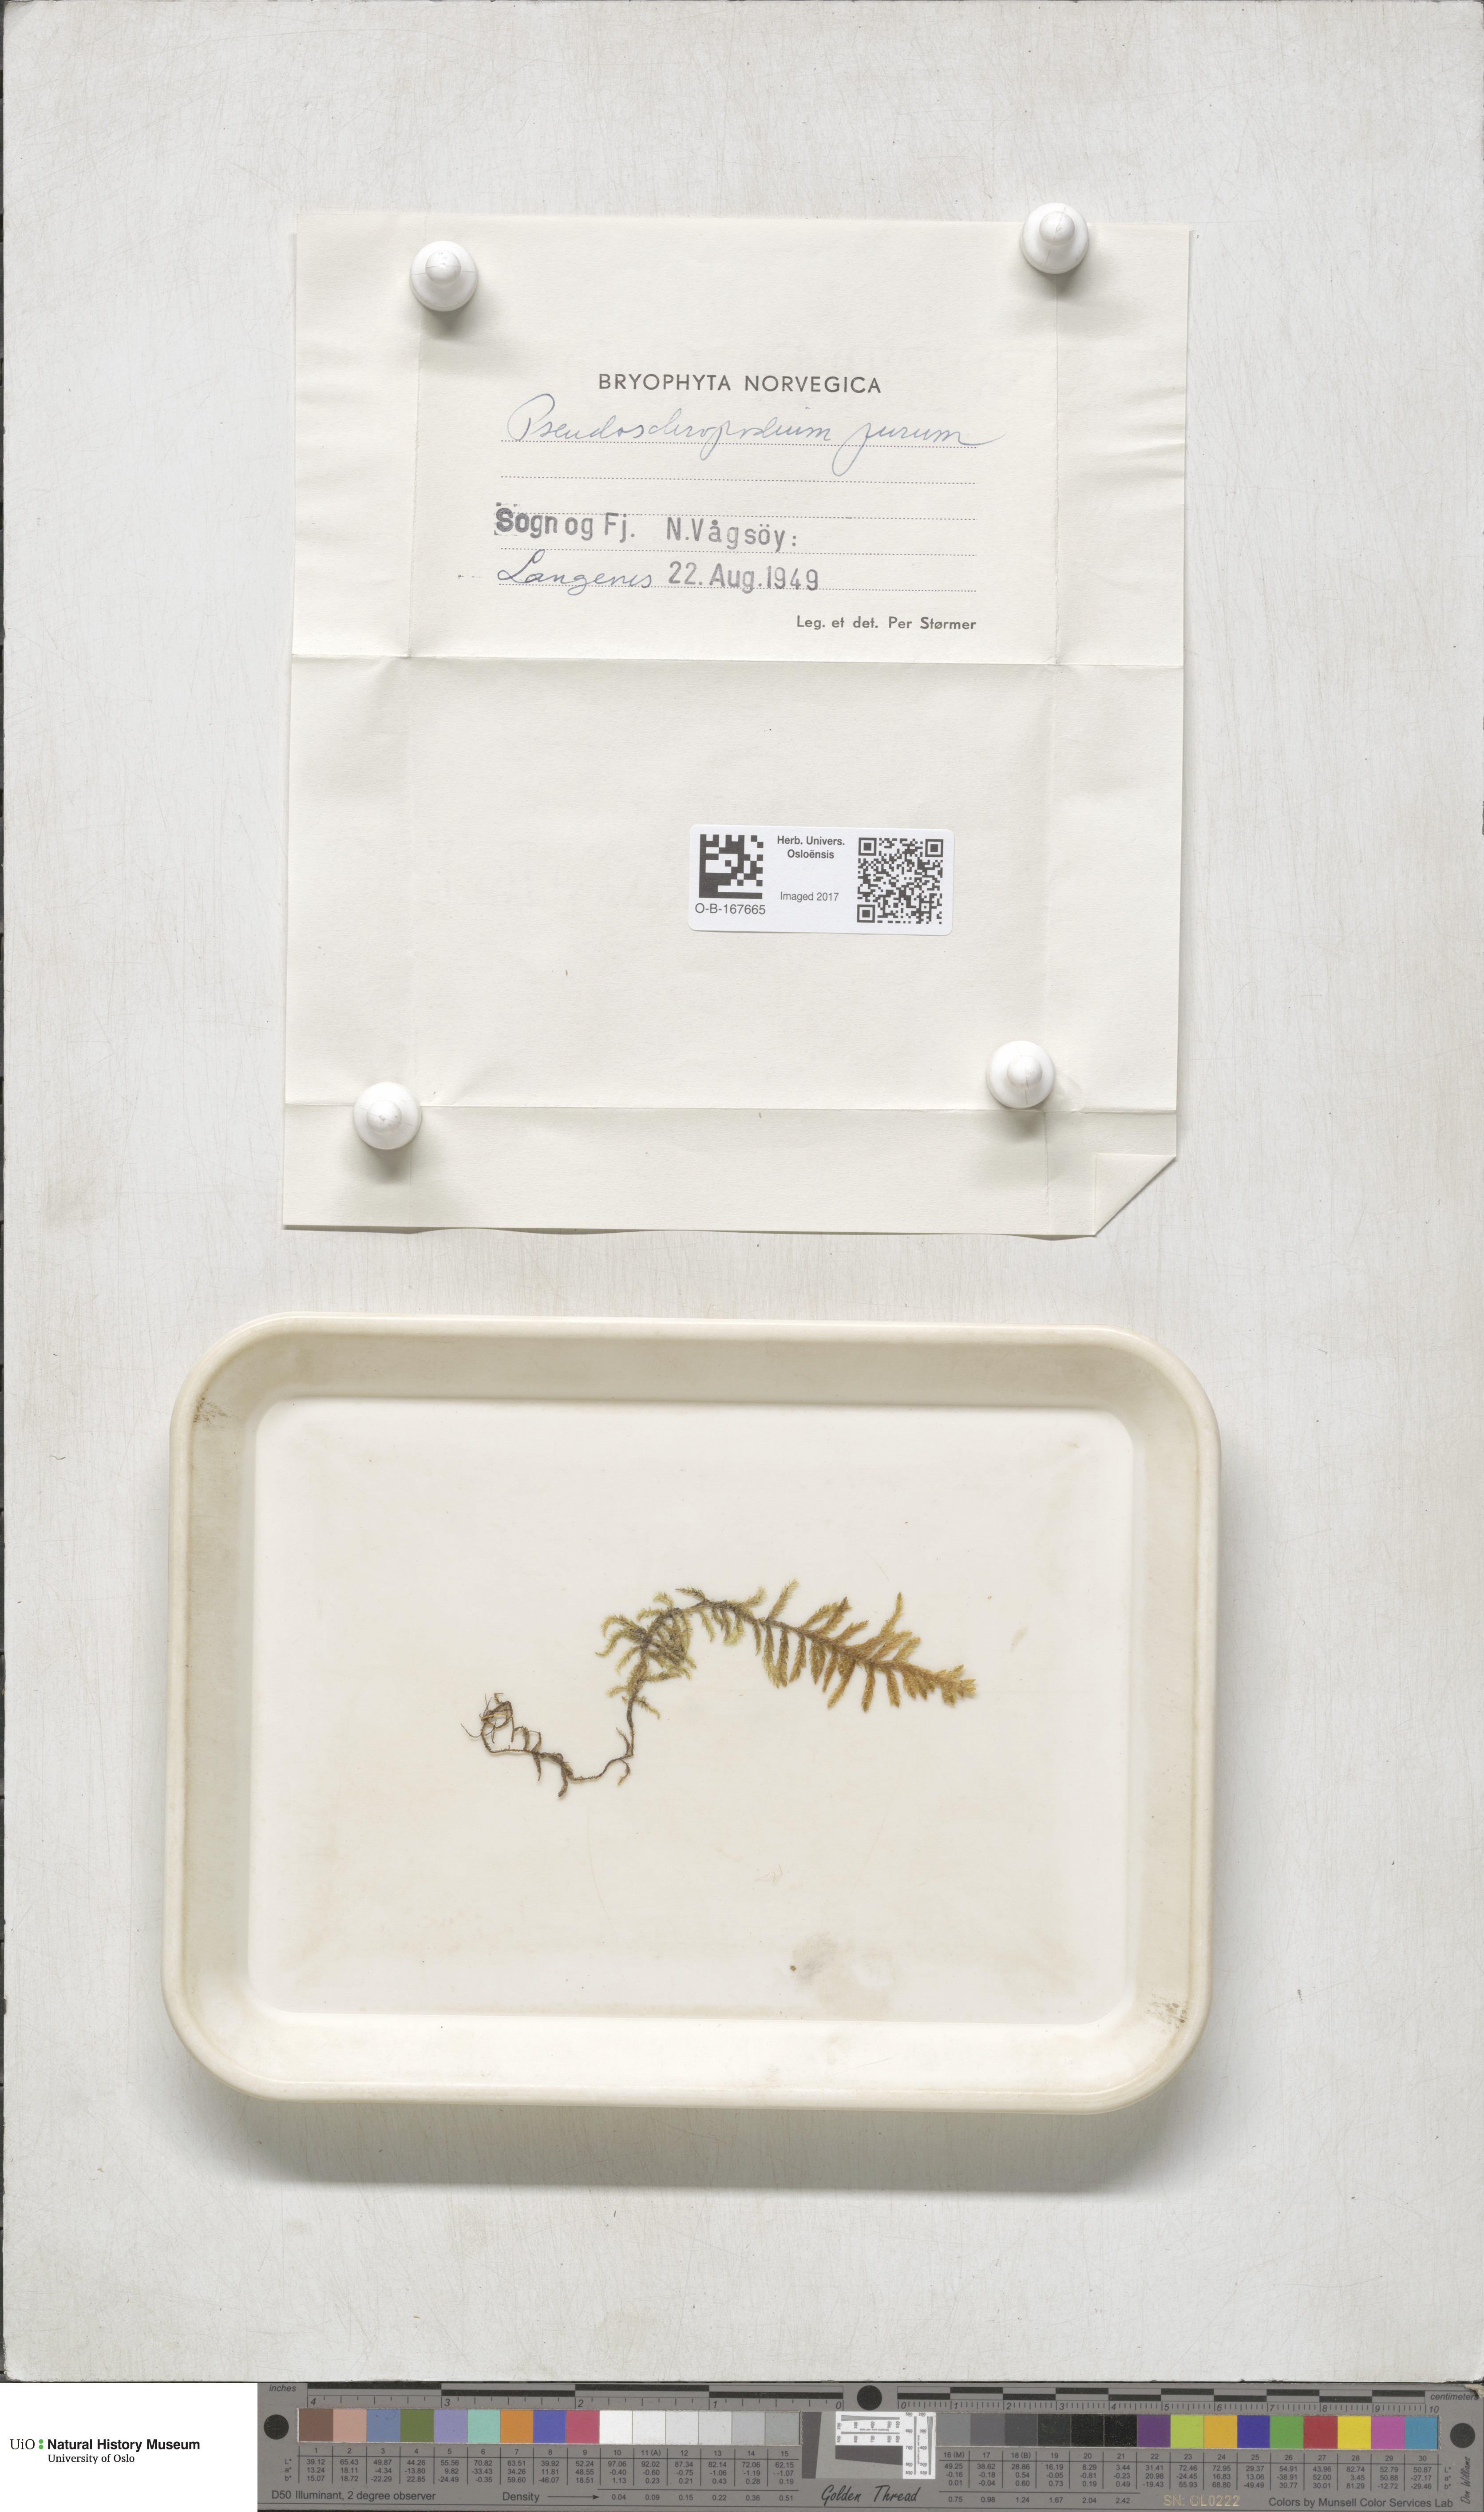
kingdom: Plantae
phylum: Bryophyta
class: Bryopsida
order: Hypnales
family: Brachytheciaceae
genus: Pseudoscleropodium
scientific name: Pseudoscleropodium purum
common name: Neat feather-moss
